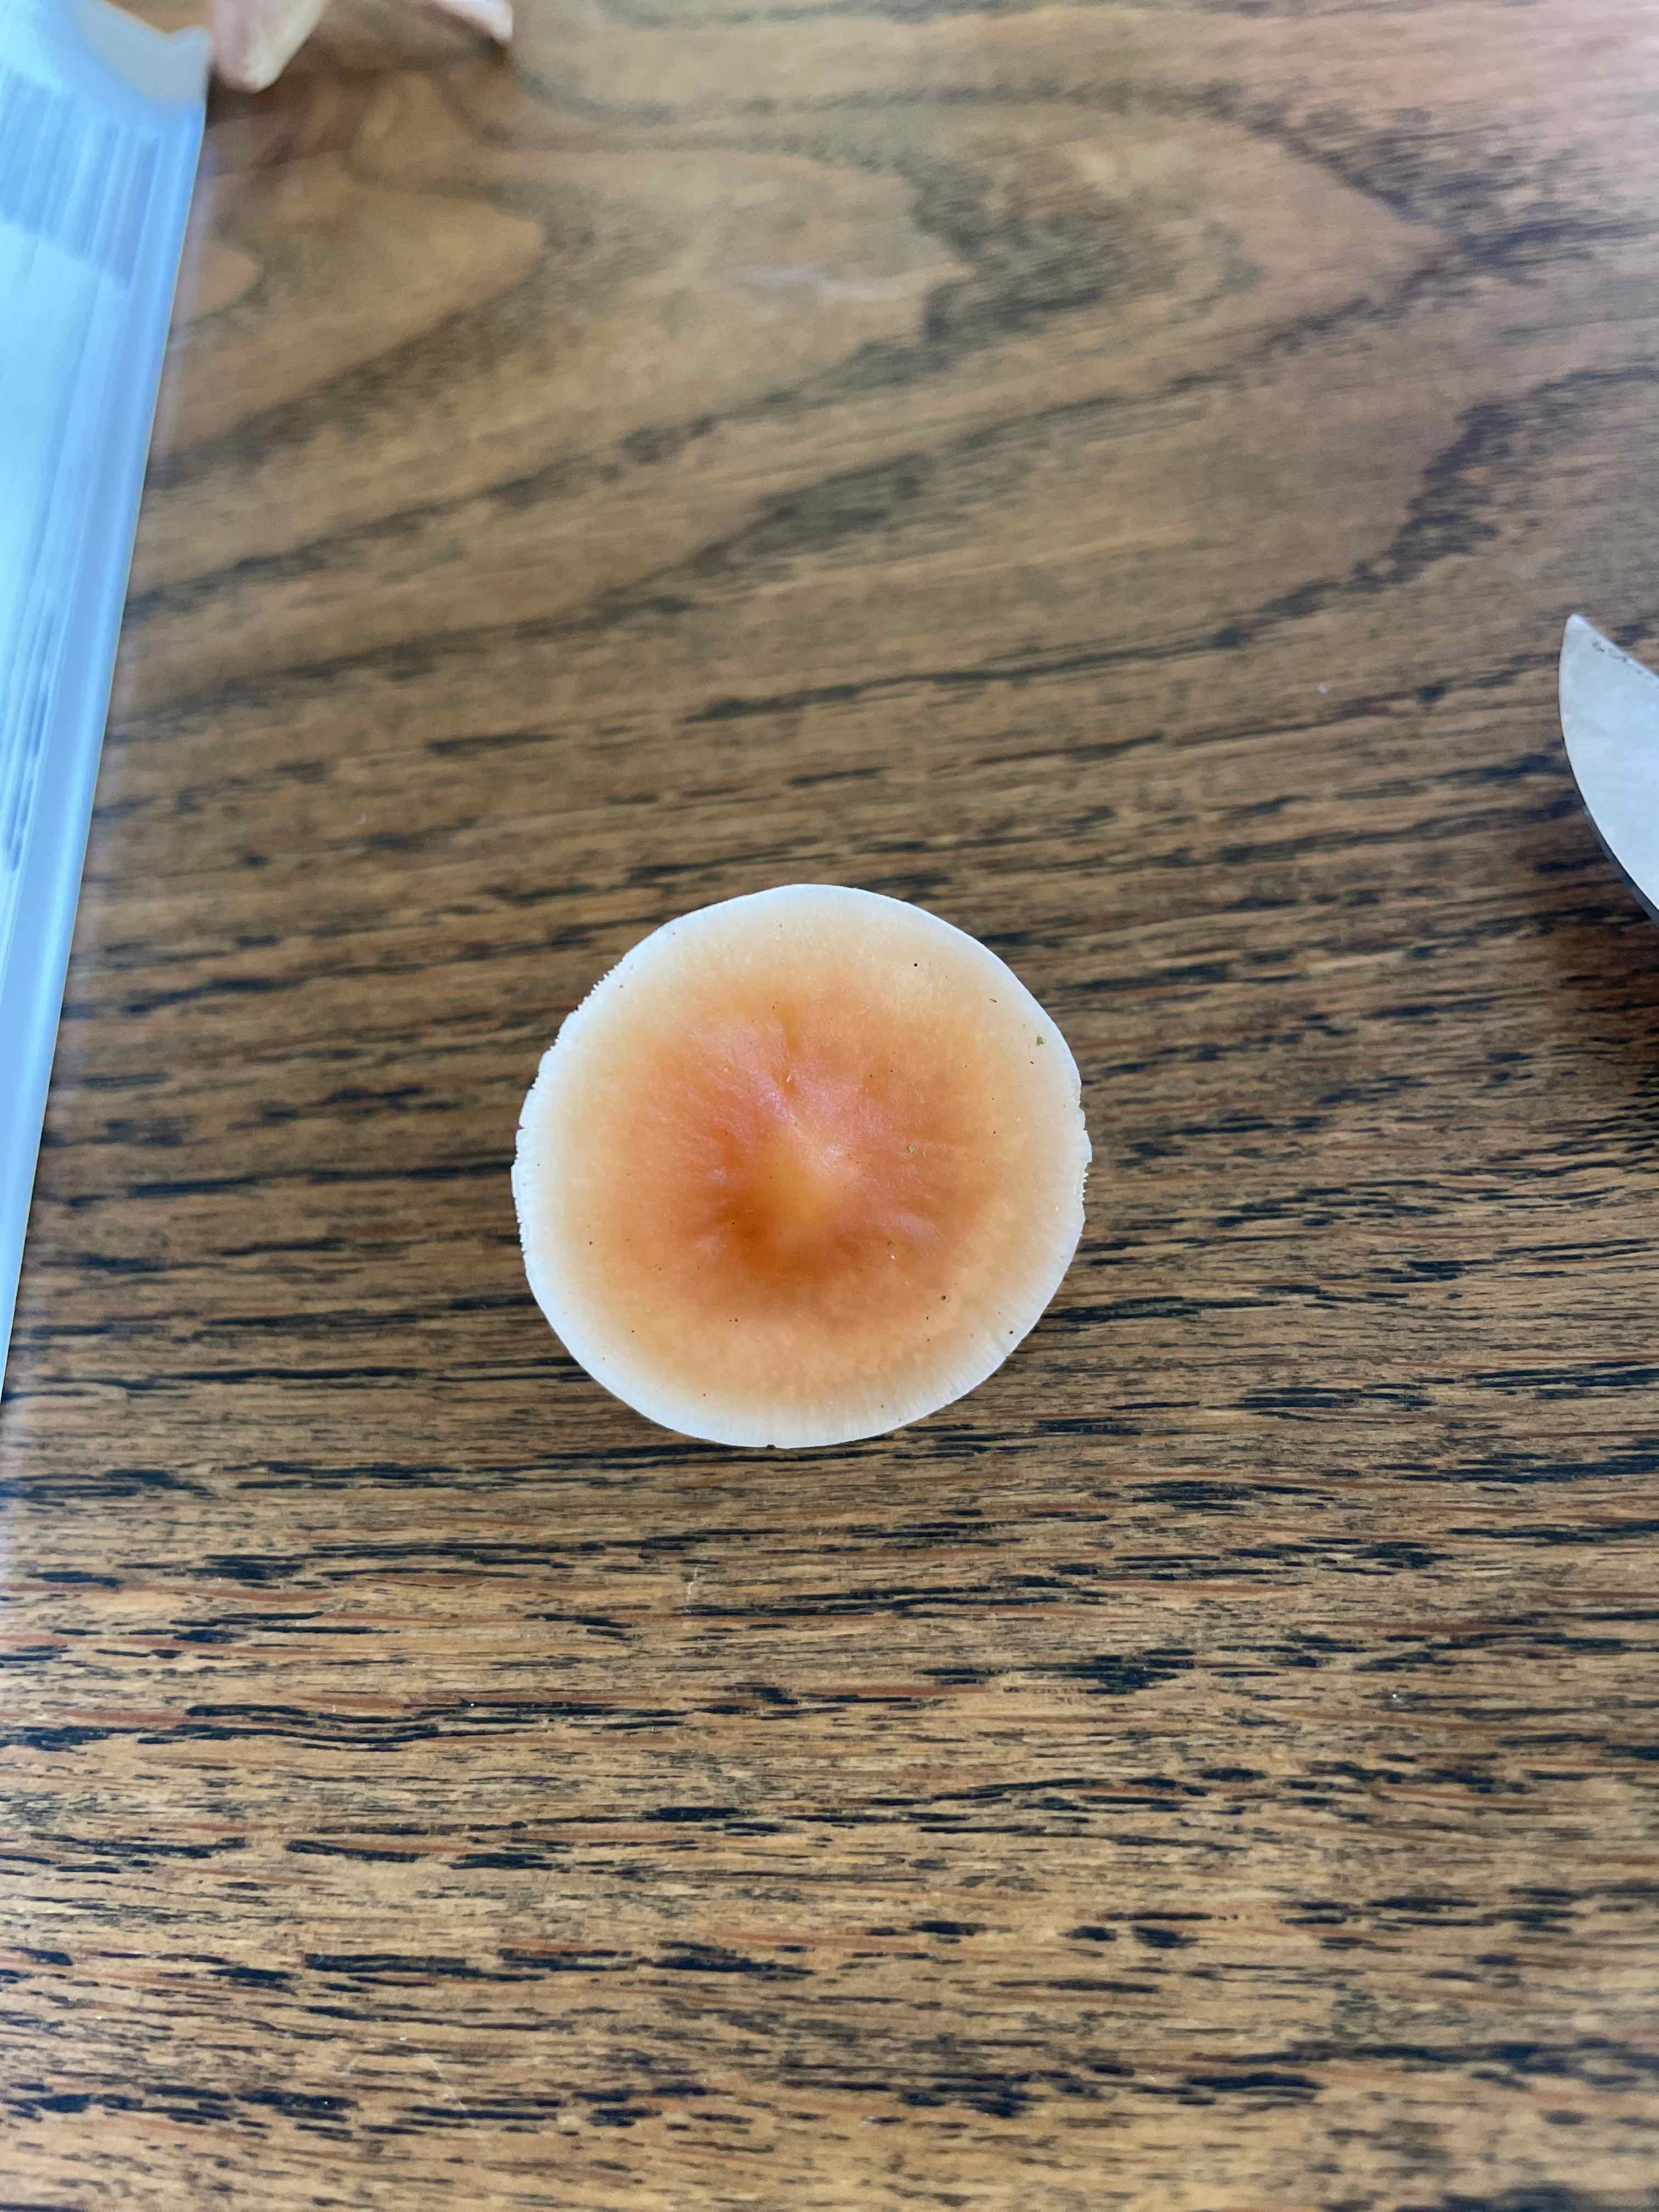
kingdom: Fungi
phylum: Basidiomycota
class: Agaricomycetes
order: Agaricales
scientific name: Agaricales
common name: champignonordenen
